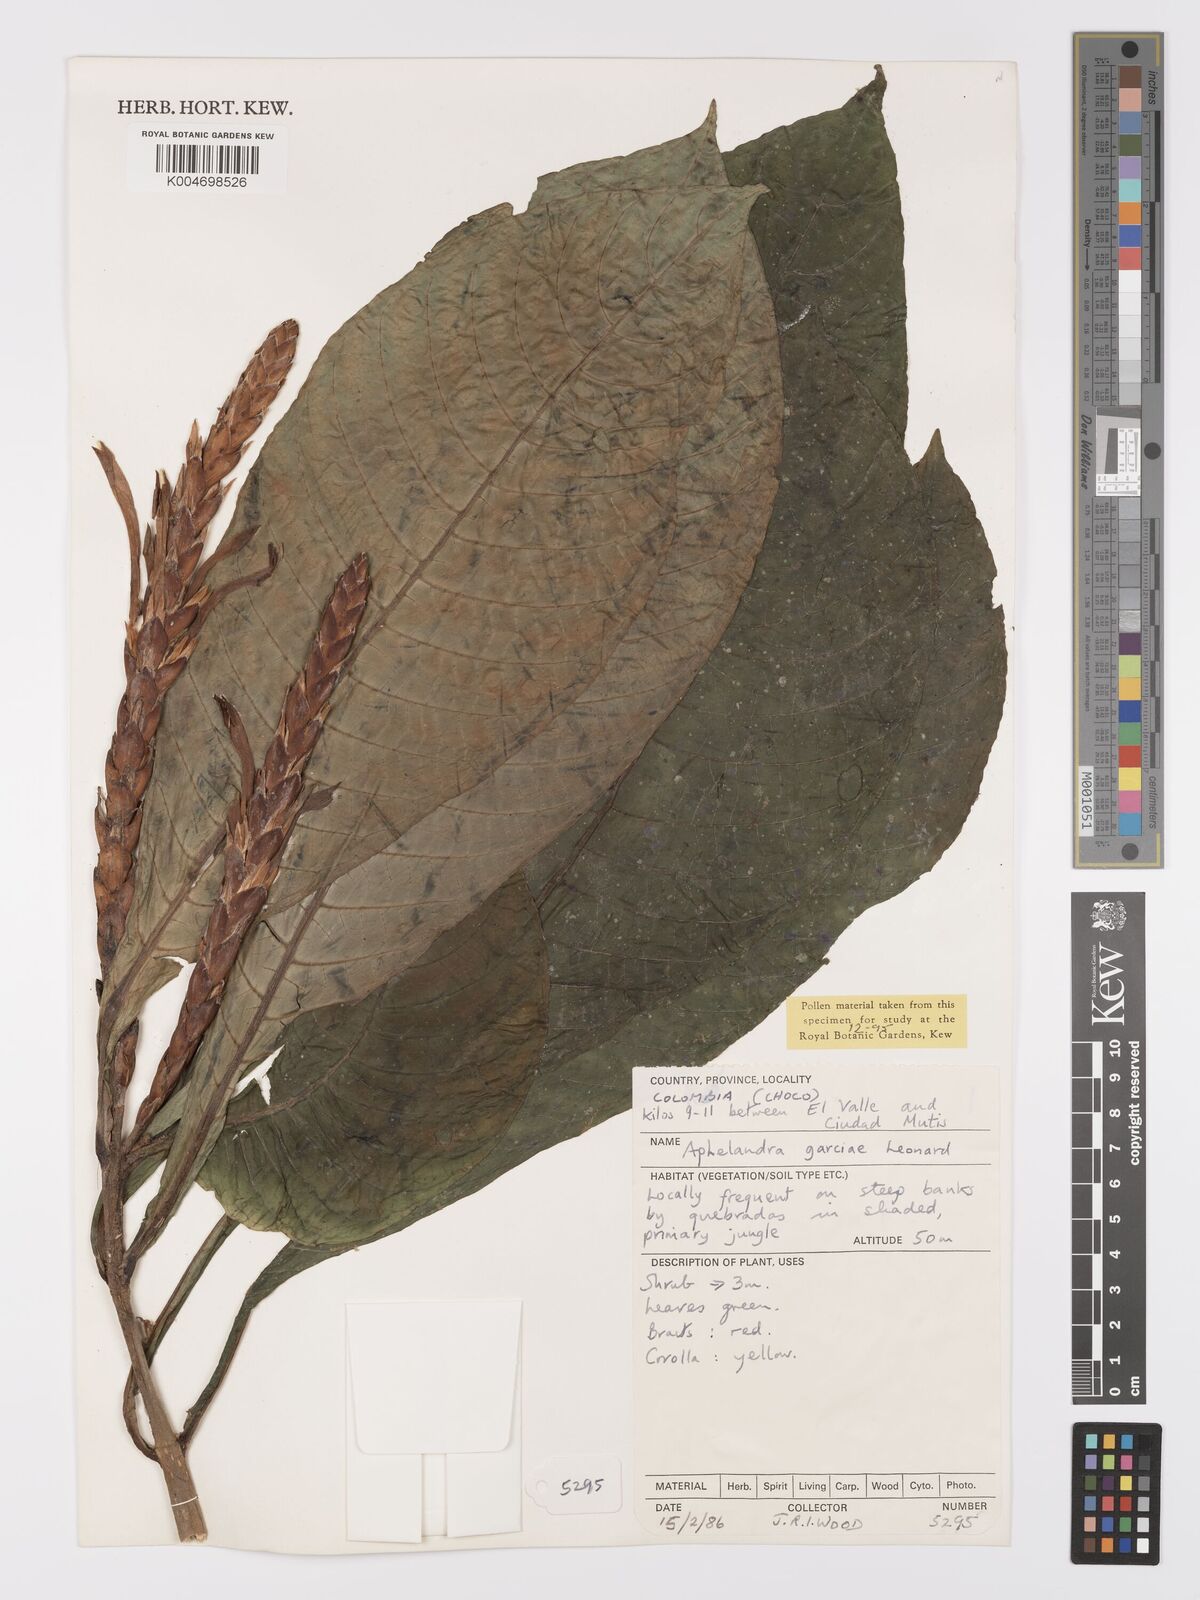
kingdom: Plantae
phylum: Tracheophyta
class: Magnoliopsida
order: Lamiales
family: Acanthaceae
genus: Aphelandra
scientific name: Aphelandra garciae
